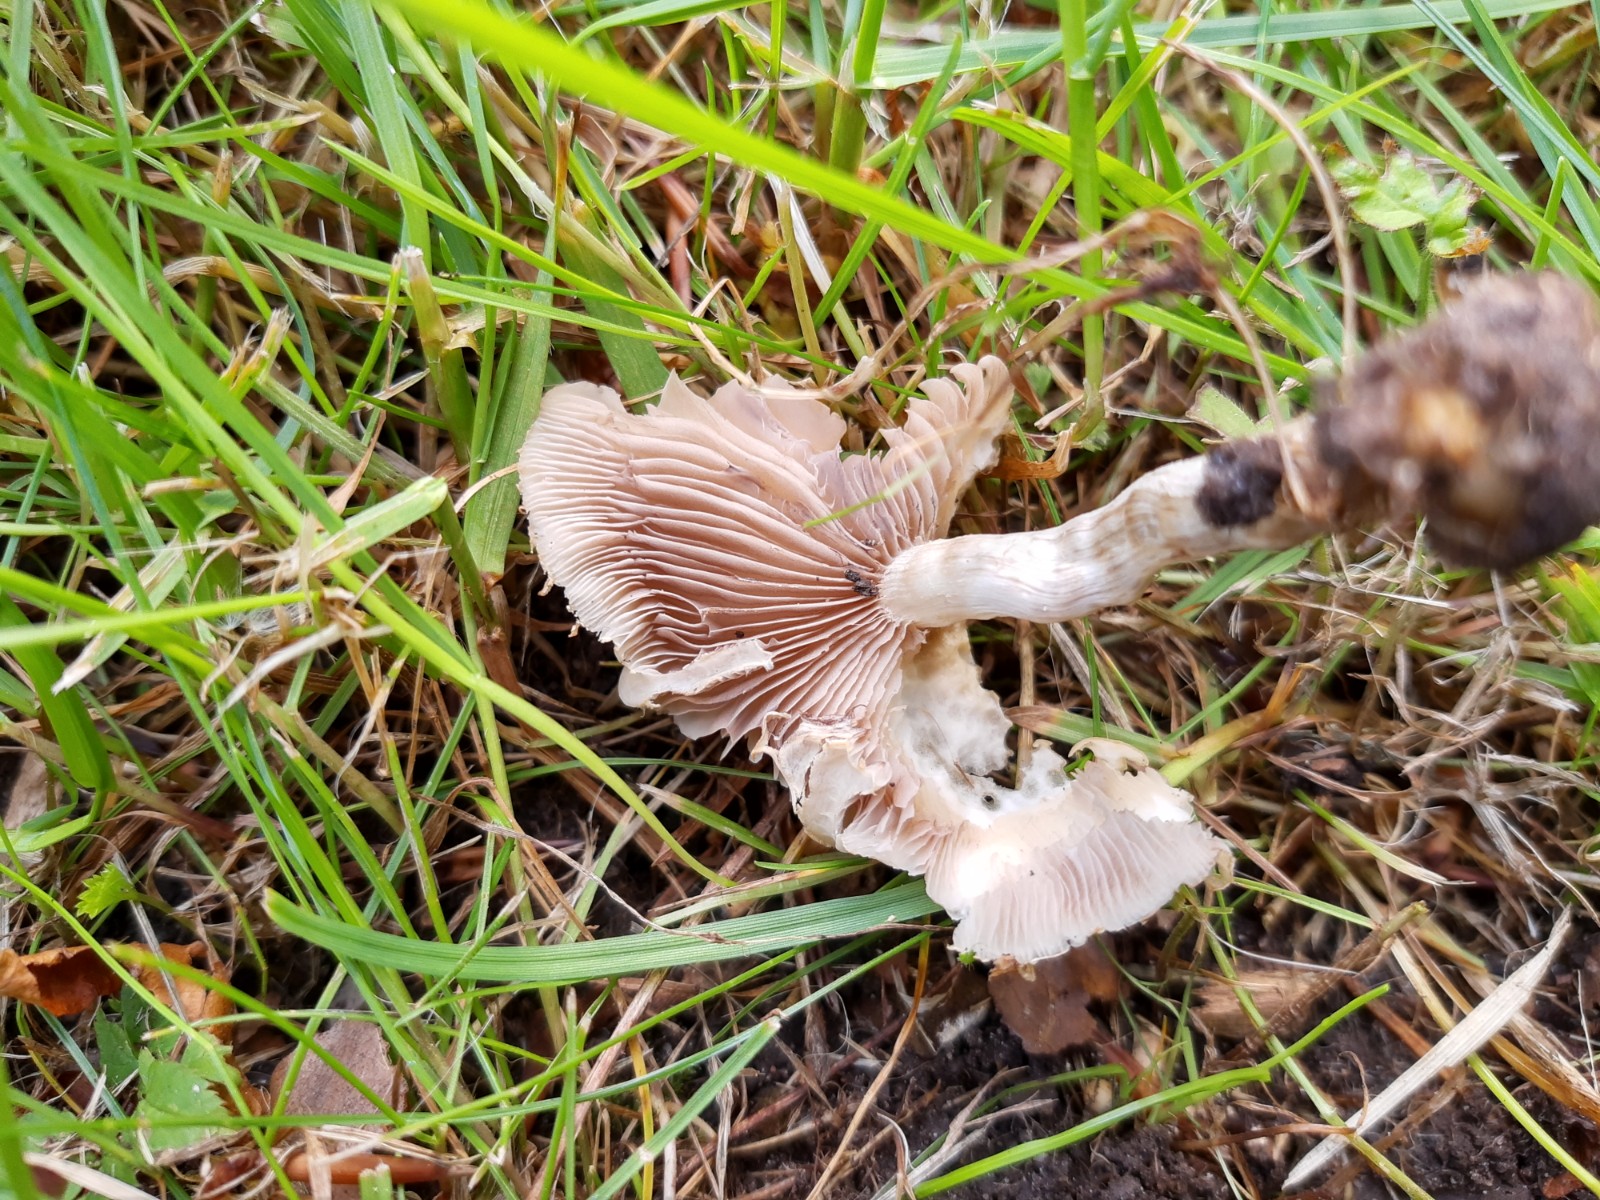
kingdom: Fungi
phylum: Basidiomycota
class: Agaricomycetes
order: Agaricales
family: Entolomataceae
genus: Entoloma
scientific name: Entoloma
